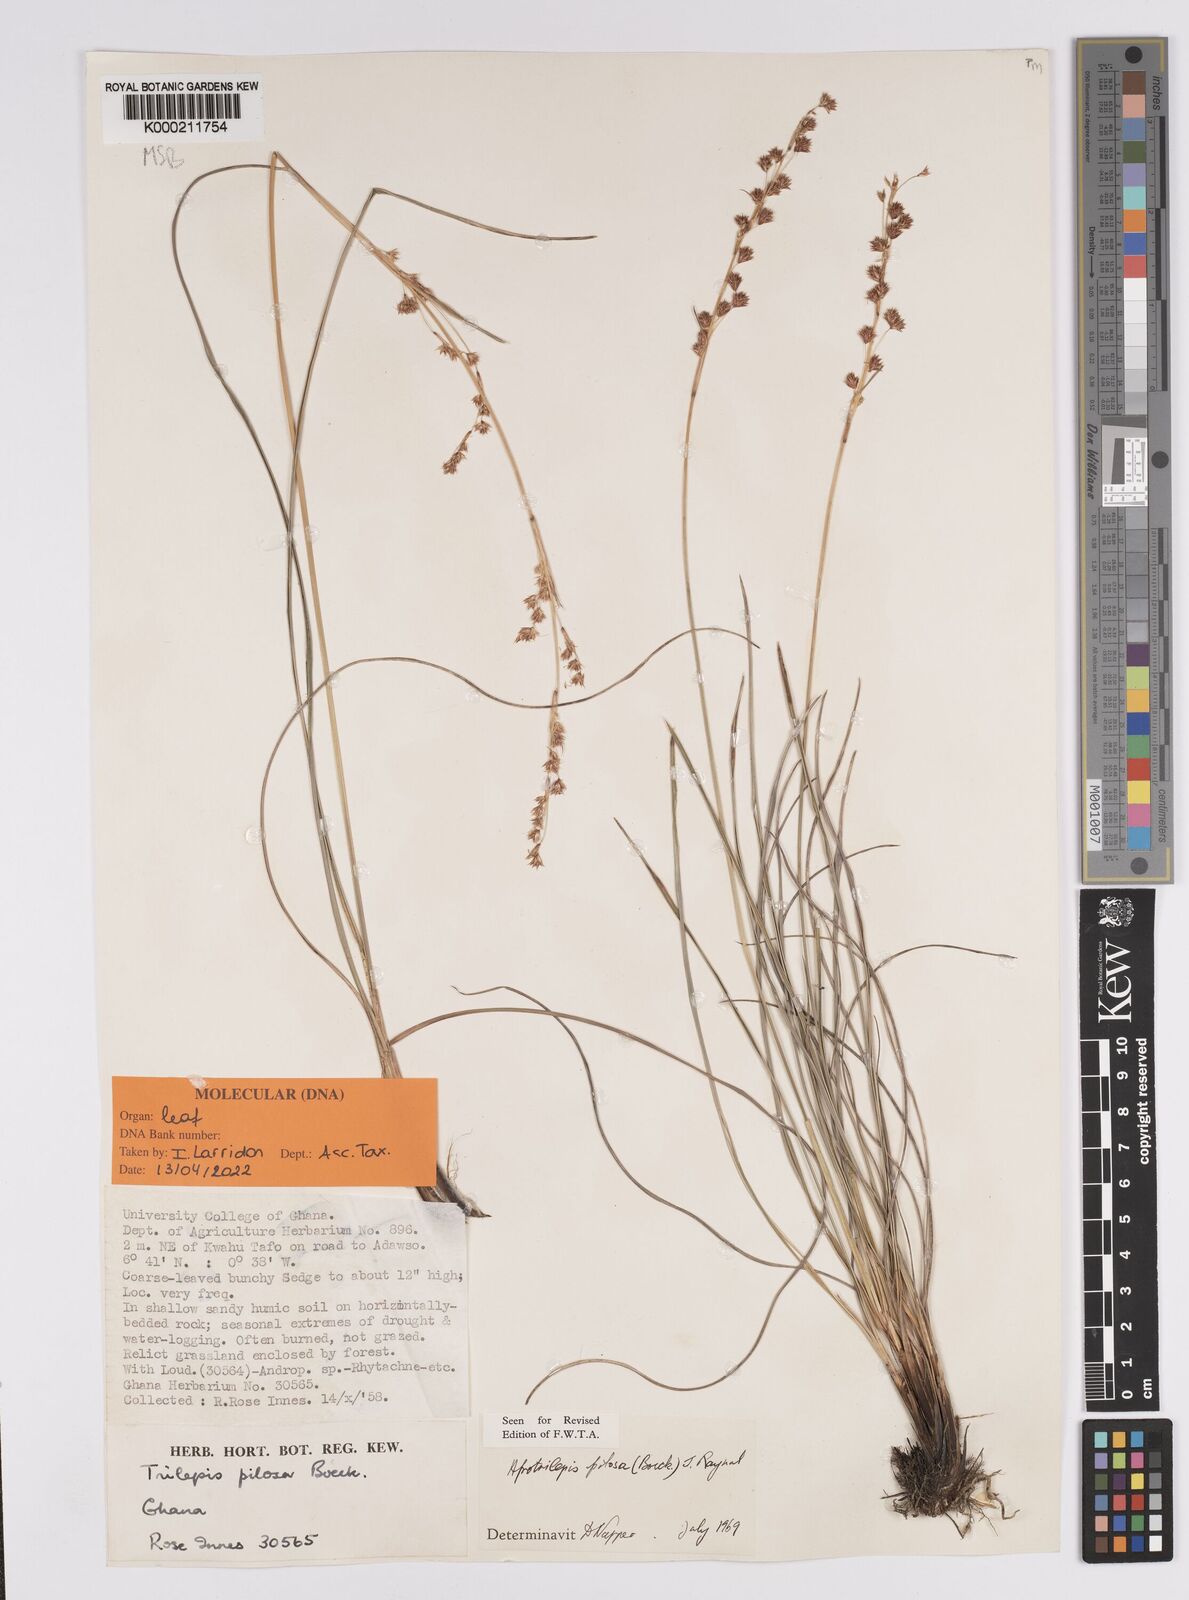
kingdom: Plantae
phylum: Tracheophyta
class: Liliopsida
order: Poales
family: Cyperaceae
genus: Afrotrilepis
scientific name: Afrotrilepis pilosa
